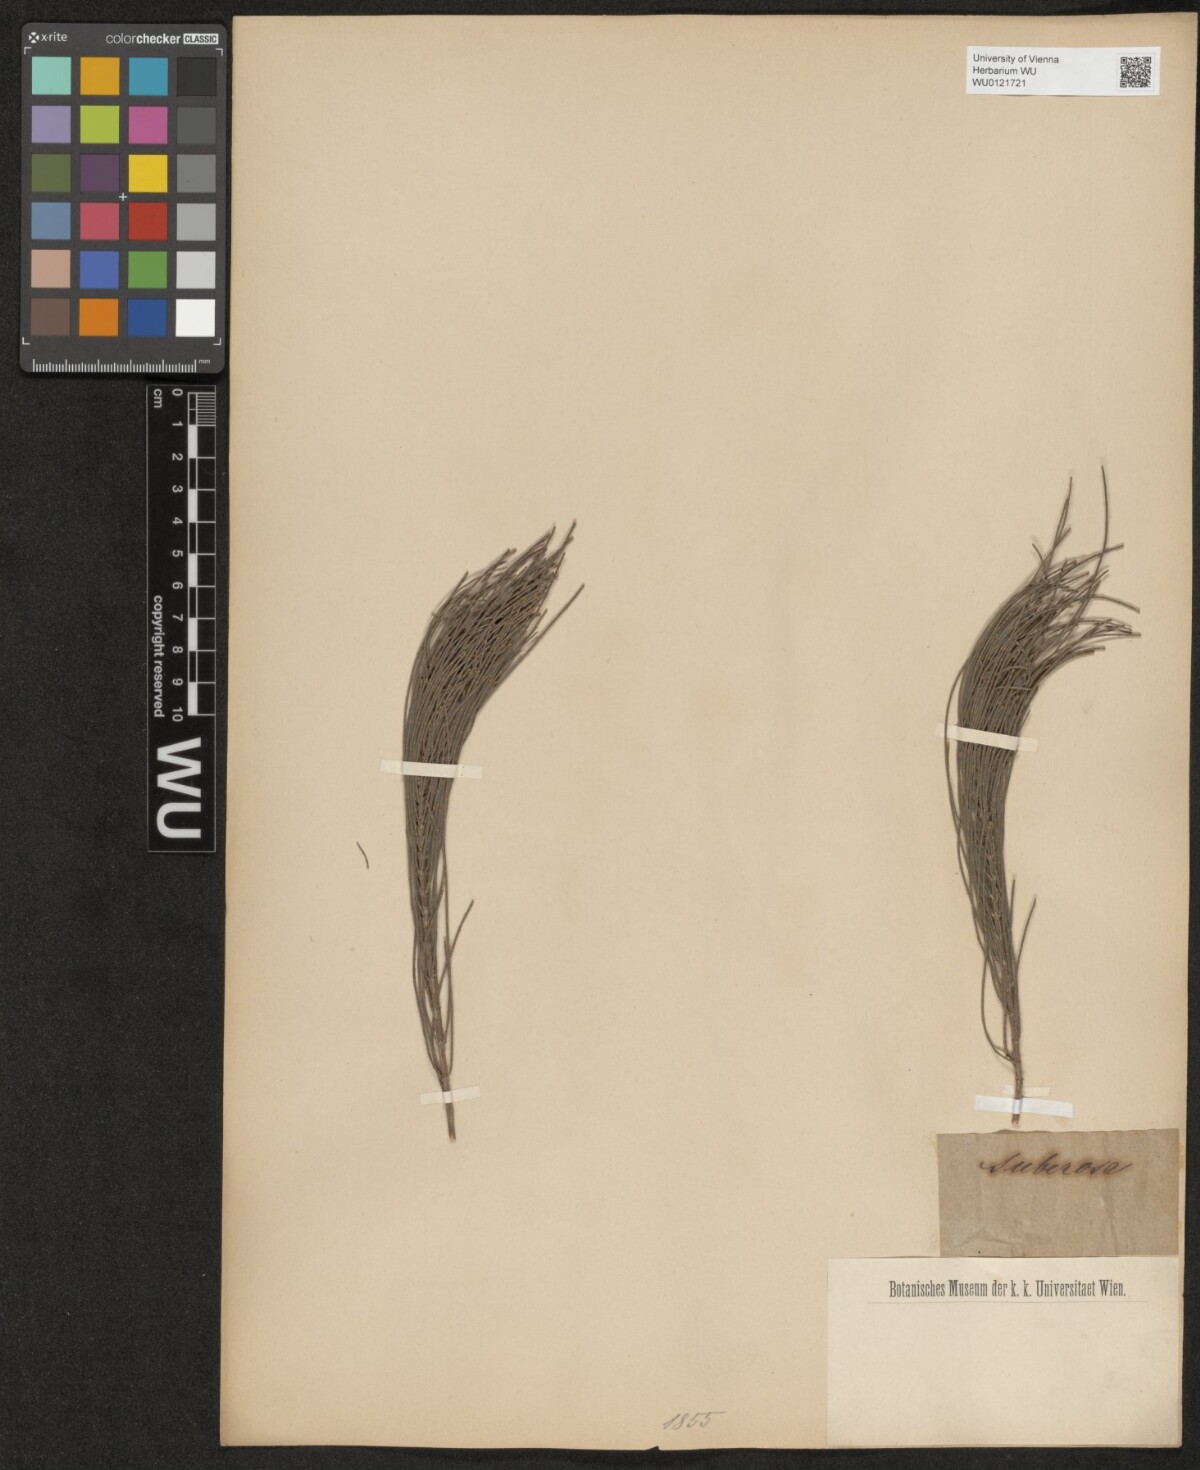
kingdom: Plantae
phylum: Tracheophyta
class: Magnoliopsida
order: Fagales
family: Casuarinaceae
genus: Allocasuarina
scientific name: Allocasuarina littoralis
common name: Black she-oak
